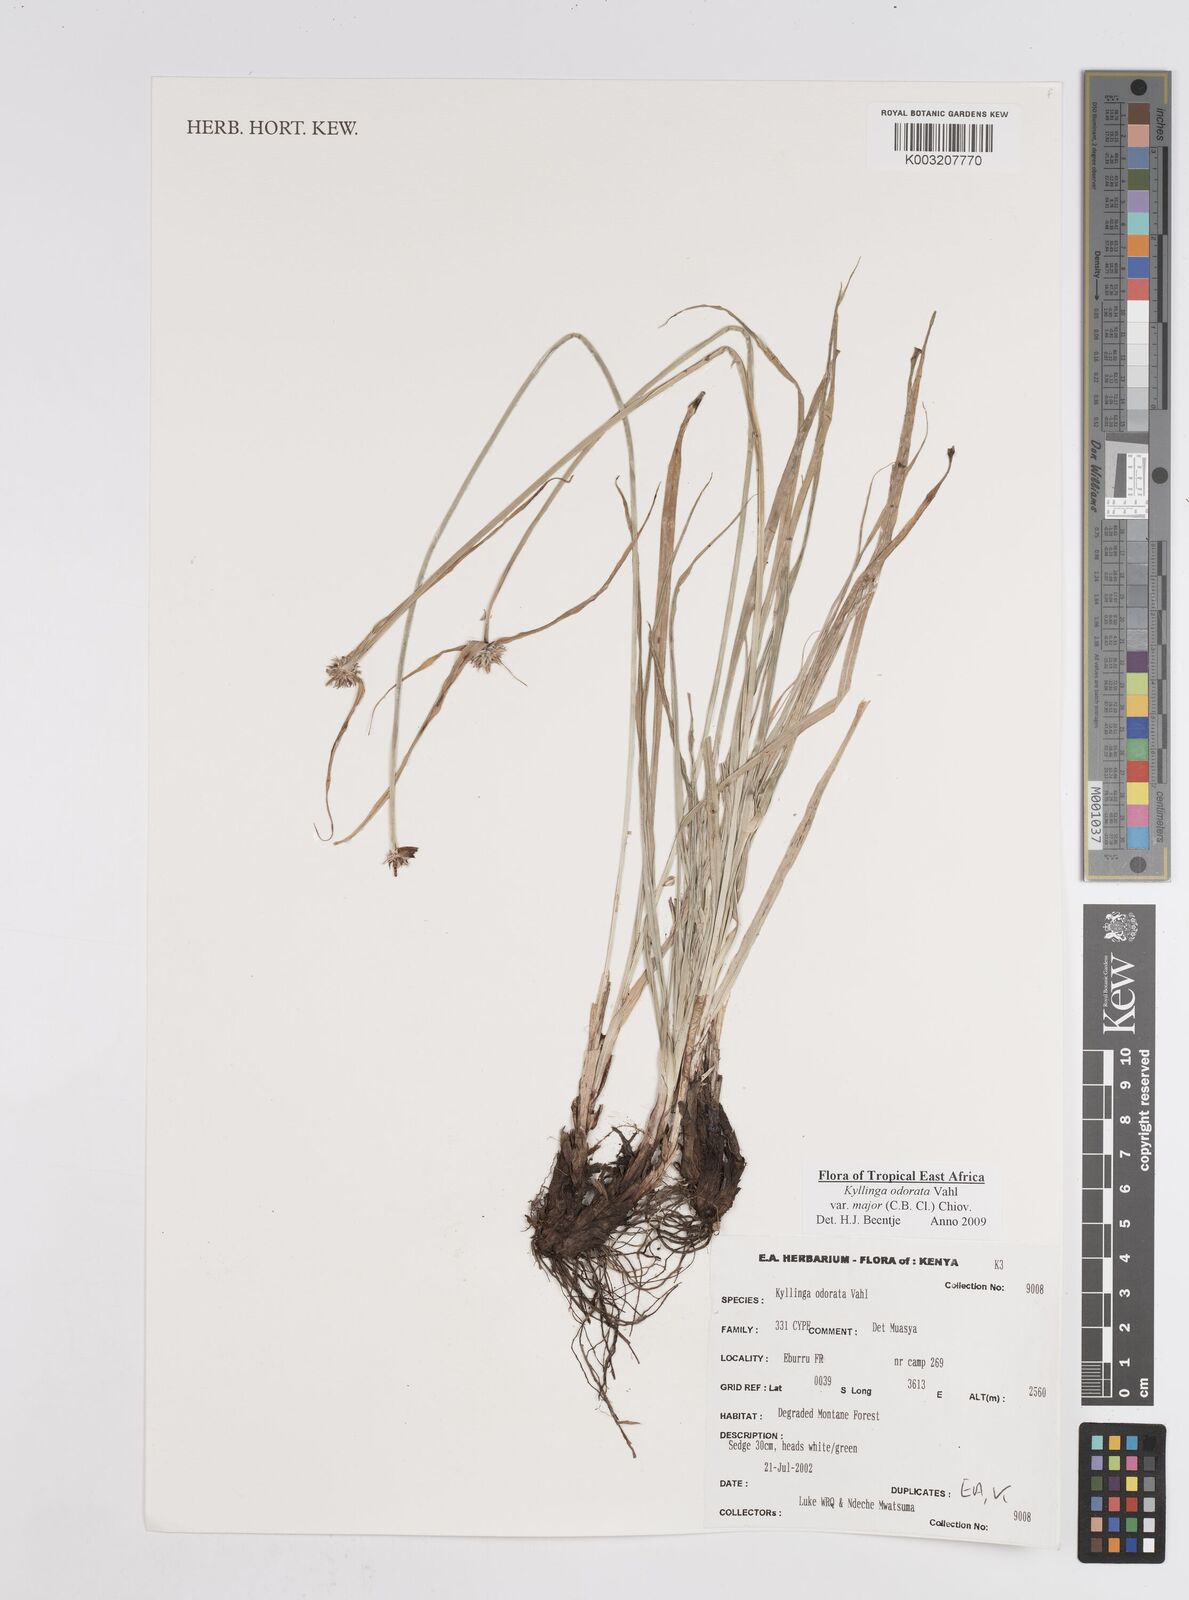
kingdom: Plantae
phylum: Tracheophyta
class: Liliopsida
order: Poales
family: Cyperaceae
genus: Cyperus
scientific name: Cyperus
